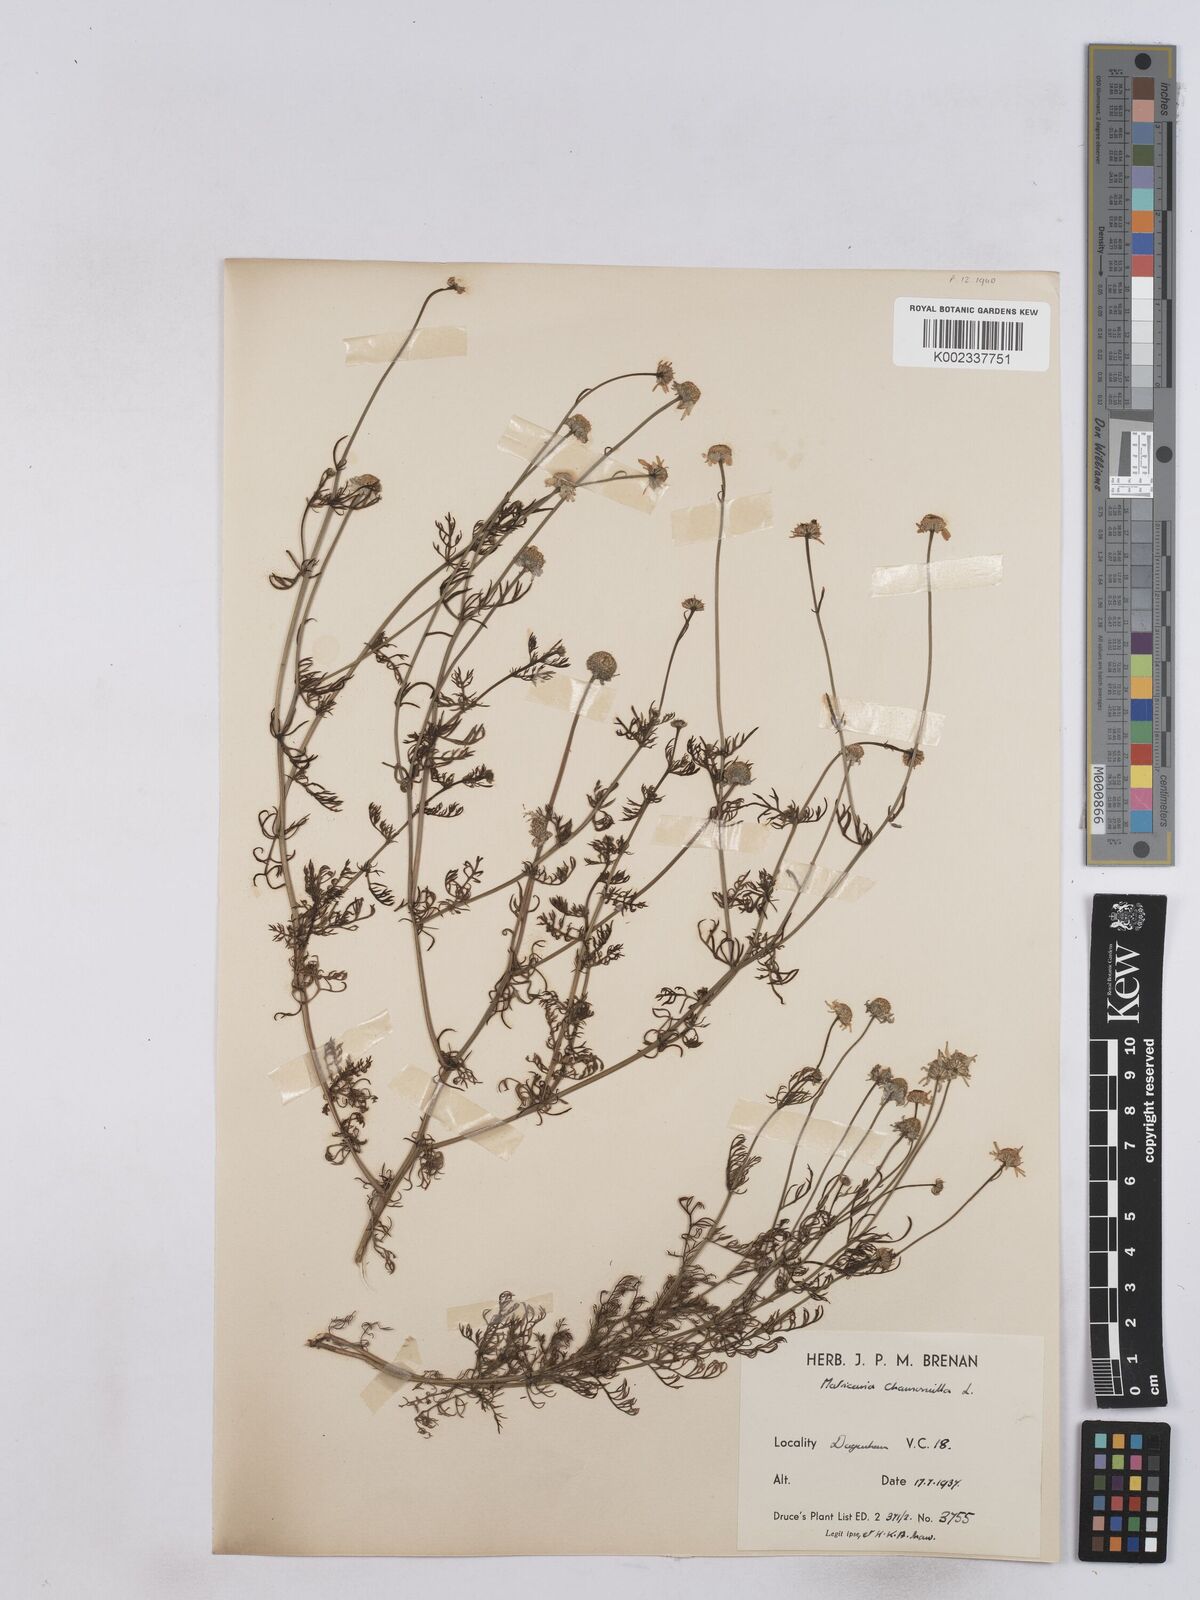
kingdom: Plantae
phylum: Tracheophyta
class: Magnoliopsida
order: Asterales
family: Asteraceae
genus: Matricaria
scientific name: Matricaria chamomilla
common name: Scented mayweed
